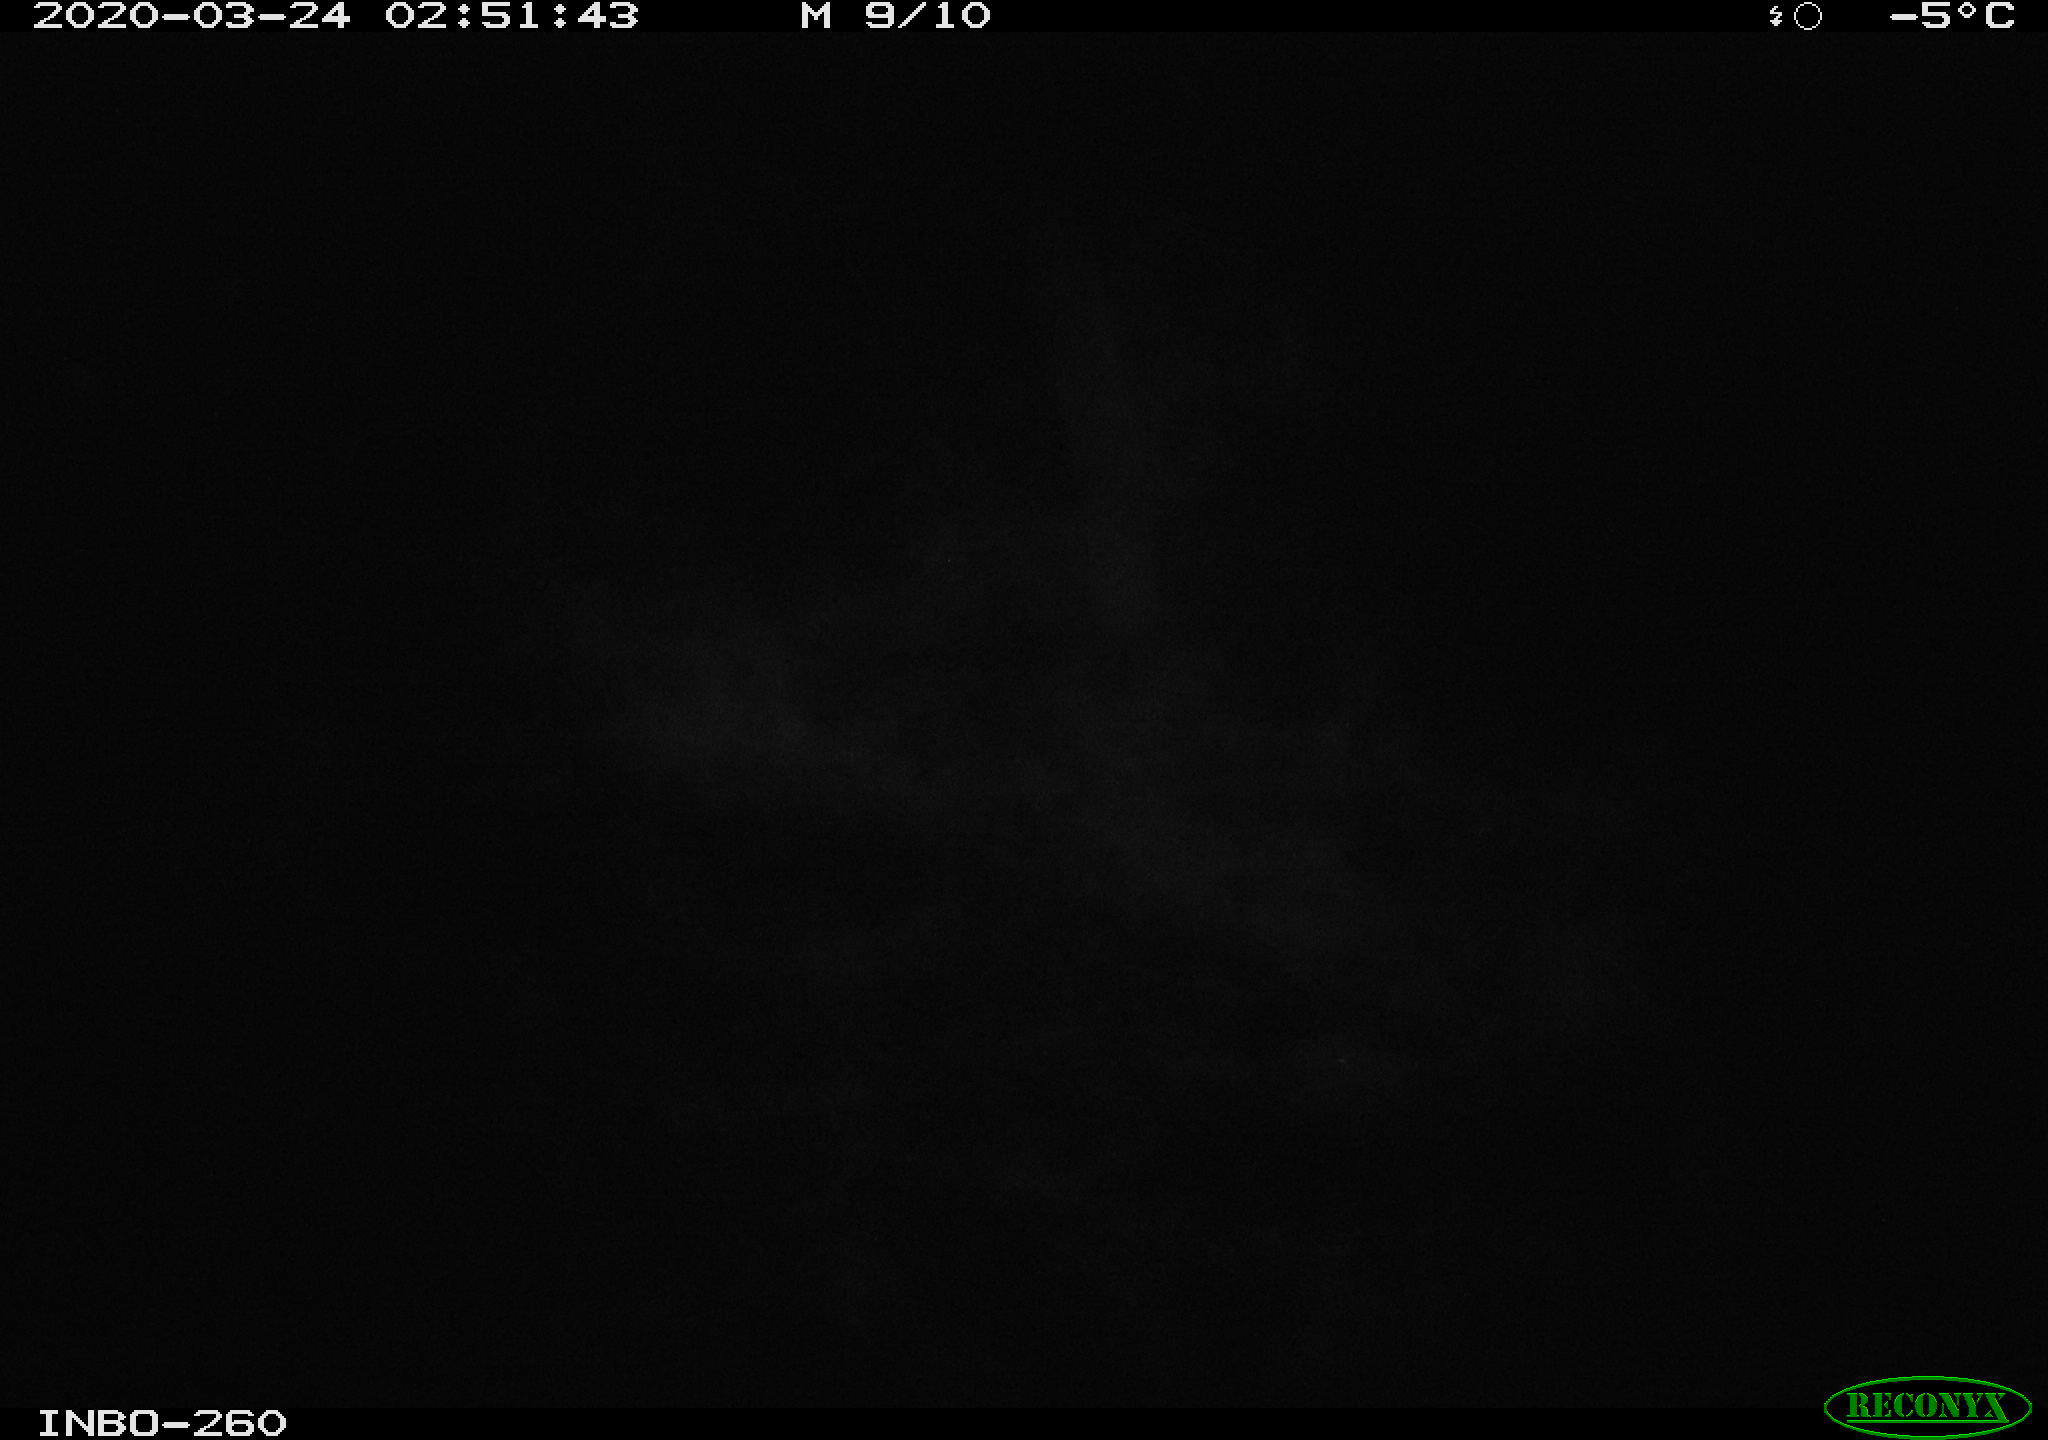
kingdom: Animalia
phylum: Chordata
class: Aves
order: Anseriformes
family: Anatidae
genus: Anas
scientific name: Anas platyrhynchos
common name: Mallard
